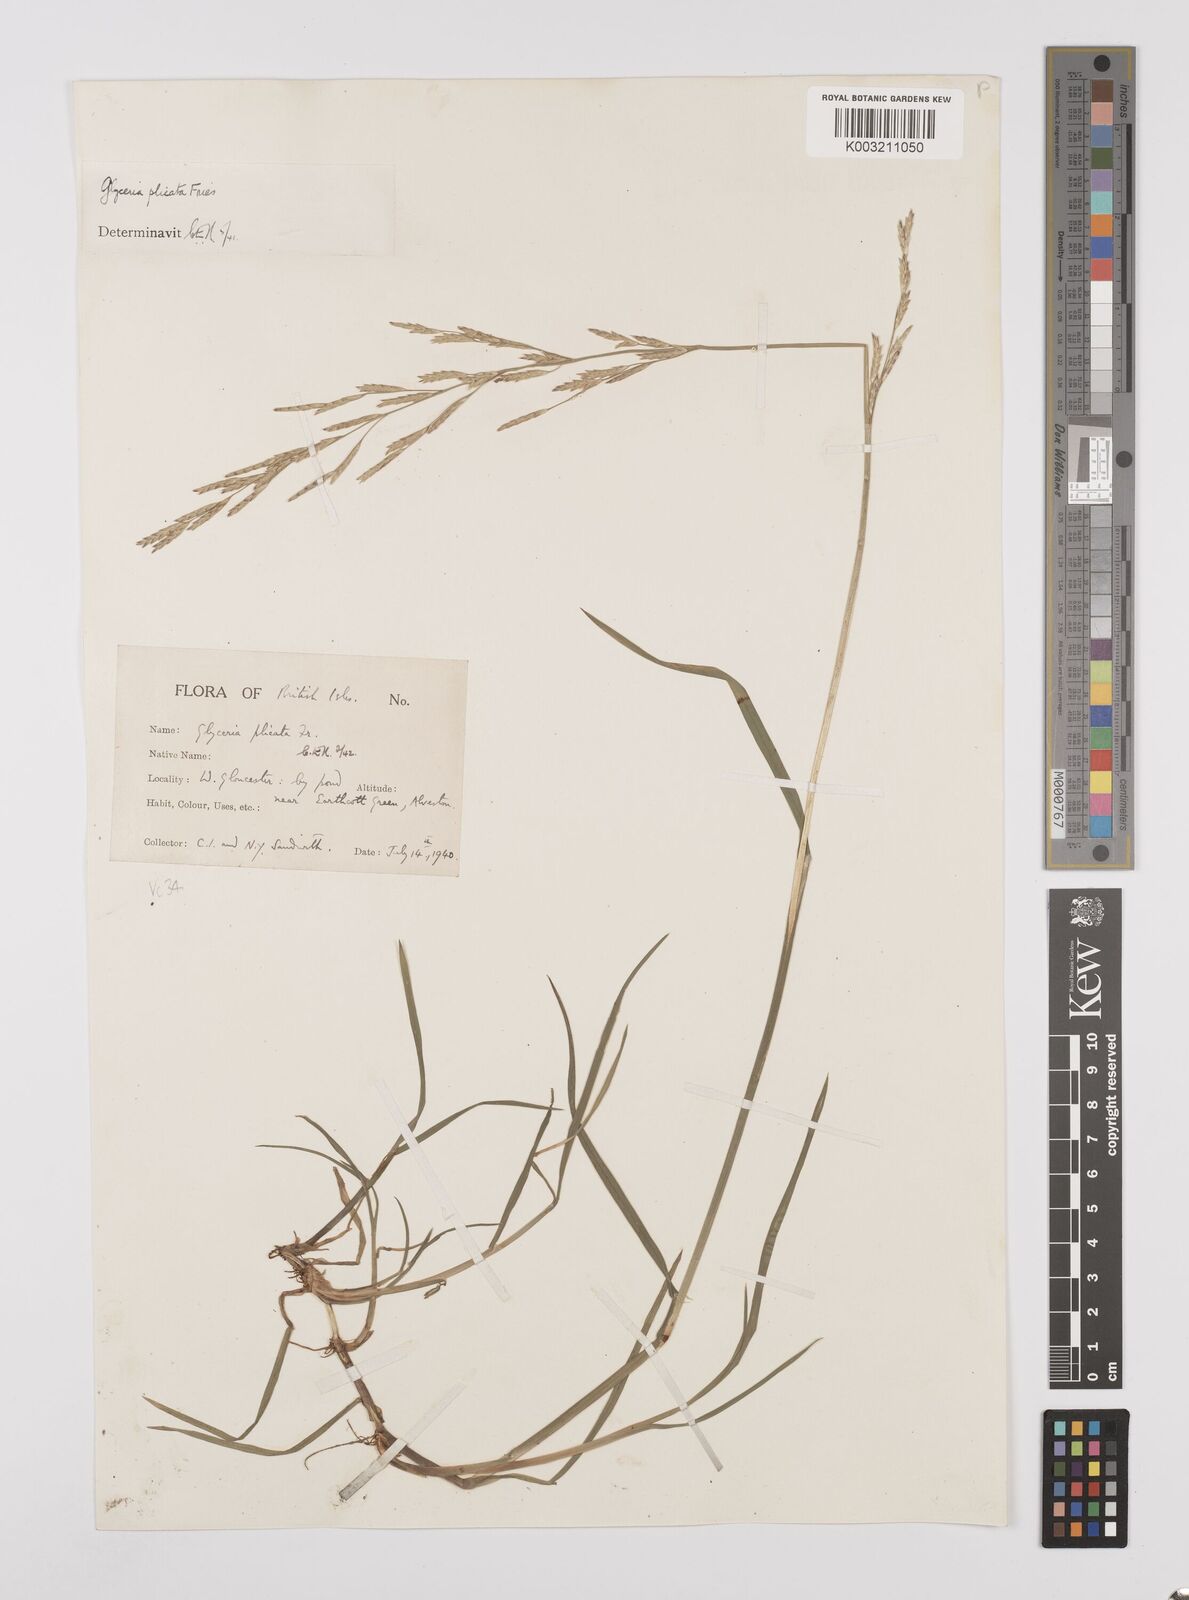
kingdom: Plantae
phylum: Tracheophyta
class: Liliopsida
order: Poales
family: Poaceae
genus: Glyceria
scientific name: Glyceria notata
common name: Plicate sweet-grass
